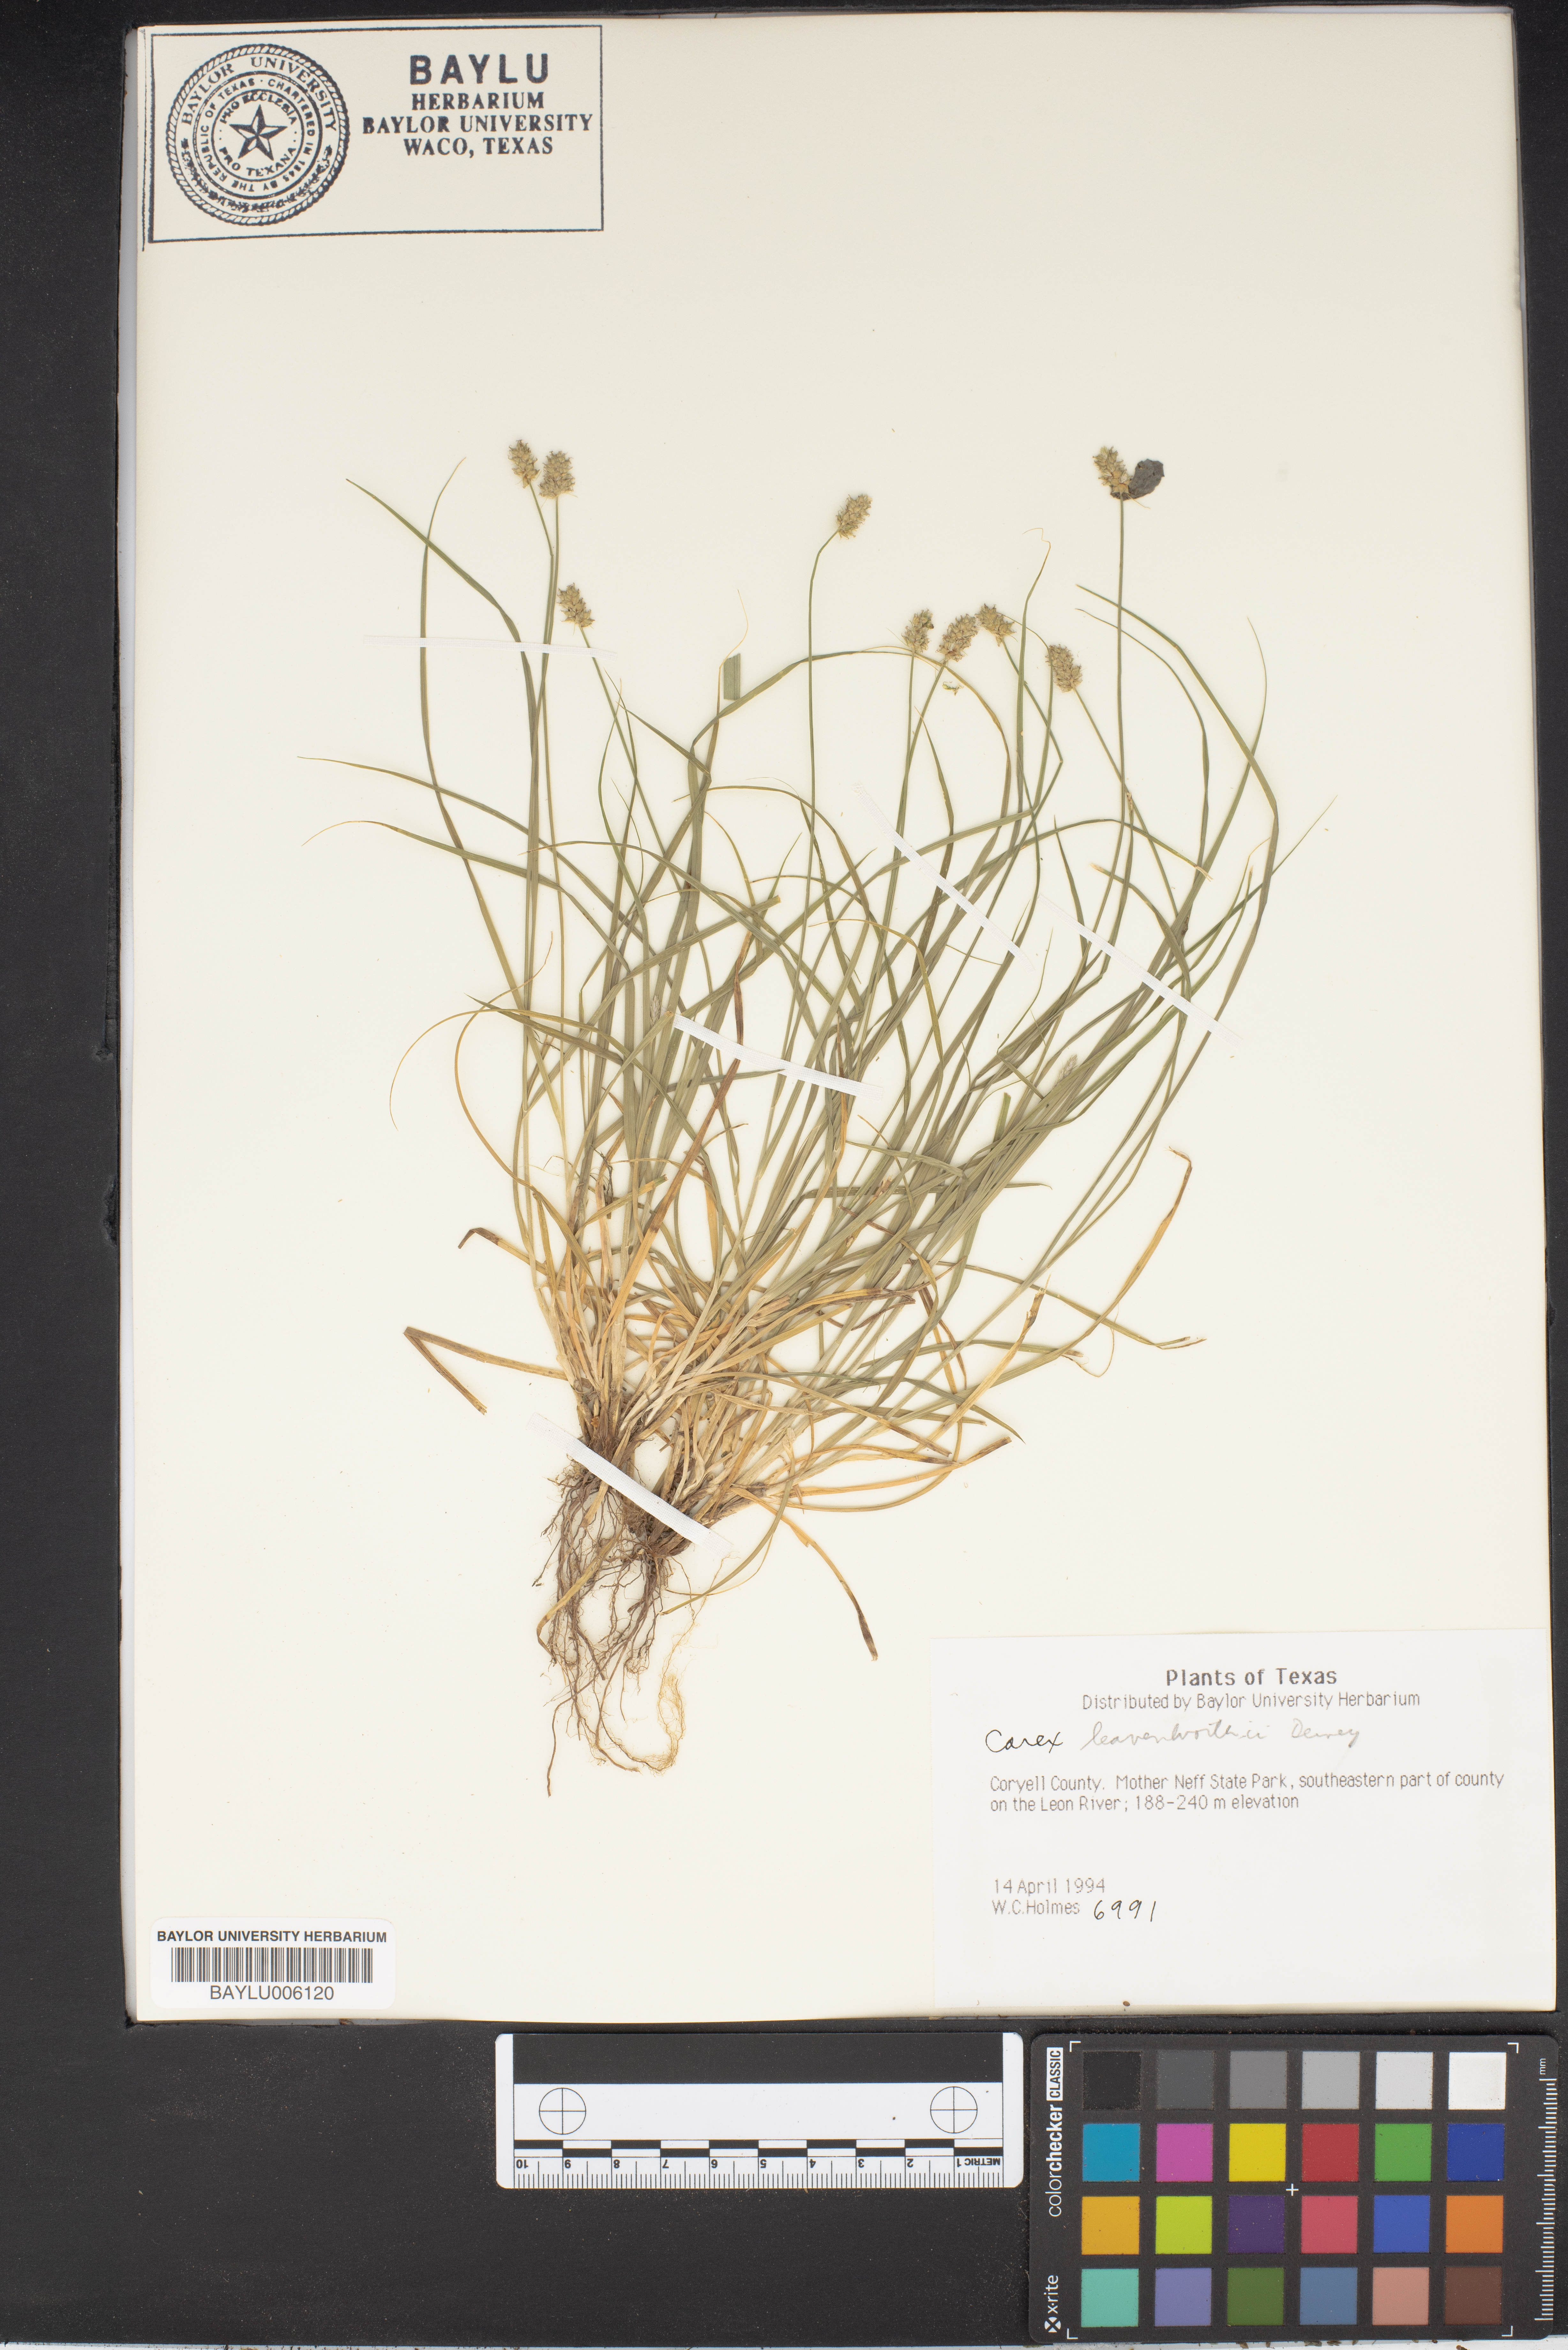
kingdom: Plantae
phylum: Tracheophyta
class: Liliopsida
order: Poales
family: Cyperaceae
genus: Carex
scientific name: Carex leavenworthii
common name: Leavenworth's bracted sedge
